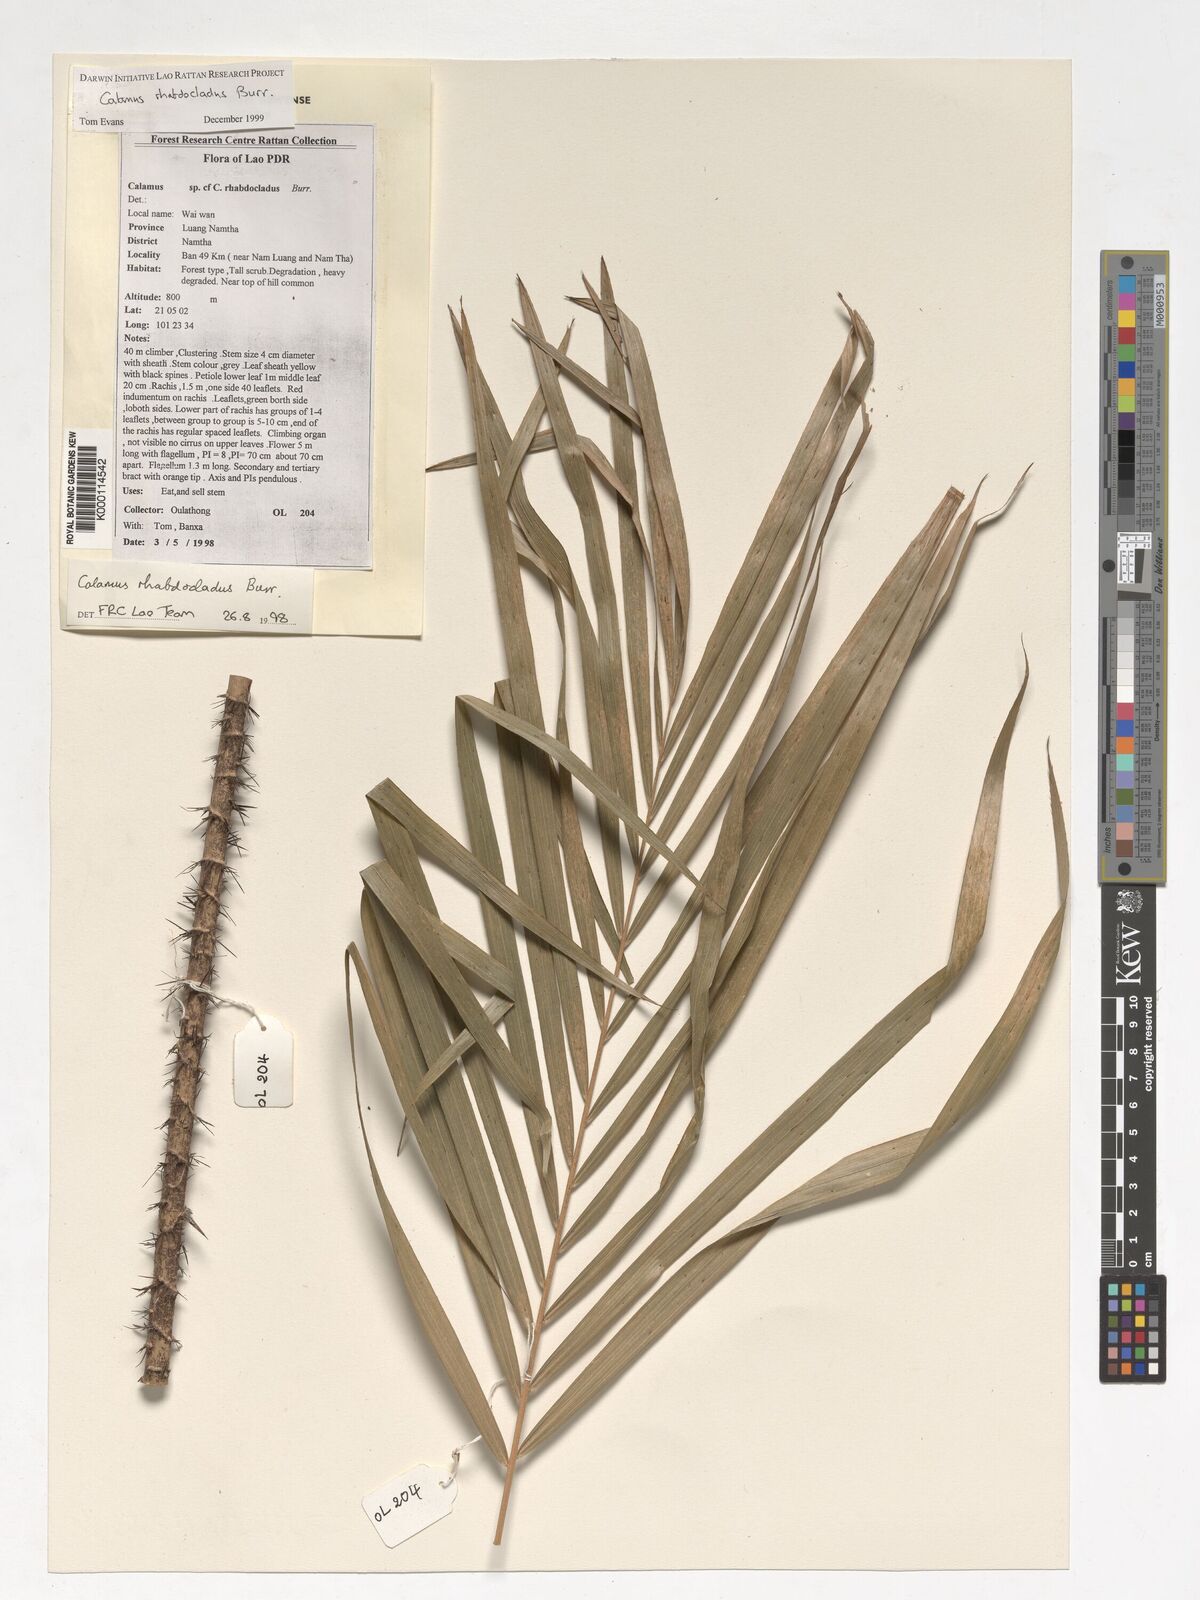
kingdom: Plantae
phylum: Tracheophyta
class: Liliopsida
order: Arecales
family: Arecaceae
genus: Calamus
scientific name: Calamus rhabdocladus
